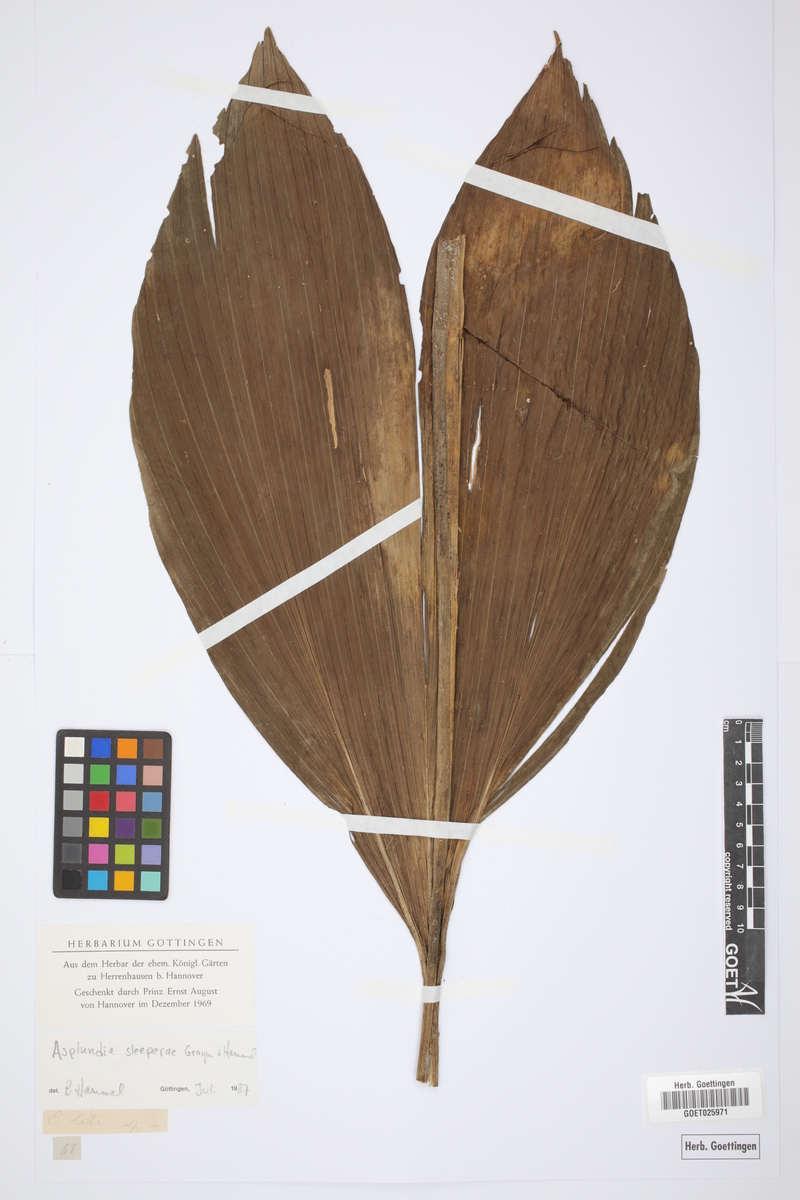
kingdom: Plantae
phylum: Tracheophyta
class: Liliopsida
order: Pandanales
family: Cyclanthaceae
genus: Asplundia
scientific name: Asplundia sleeperae
